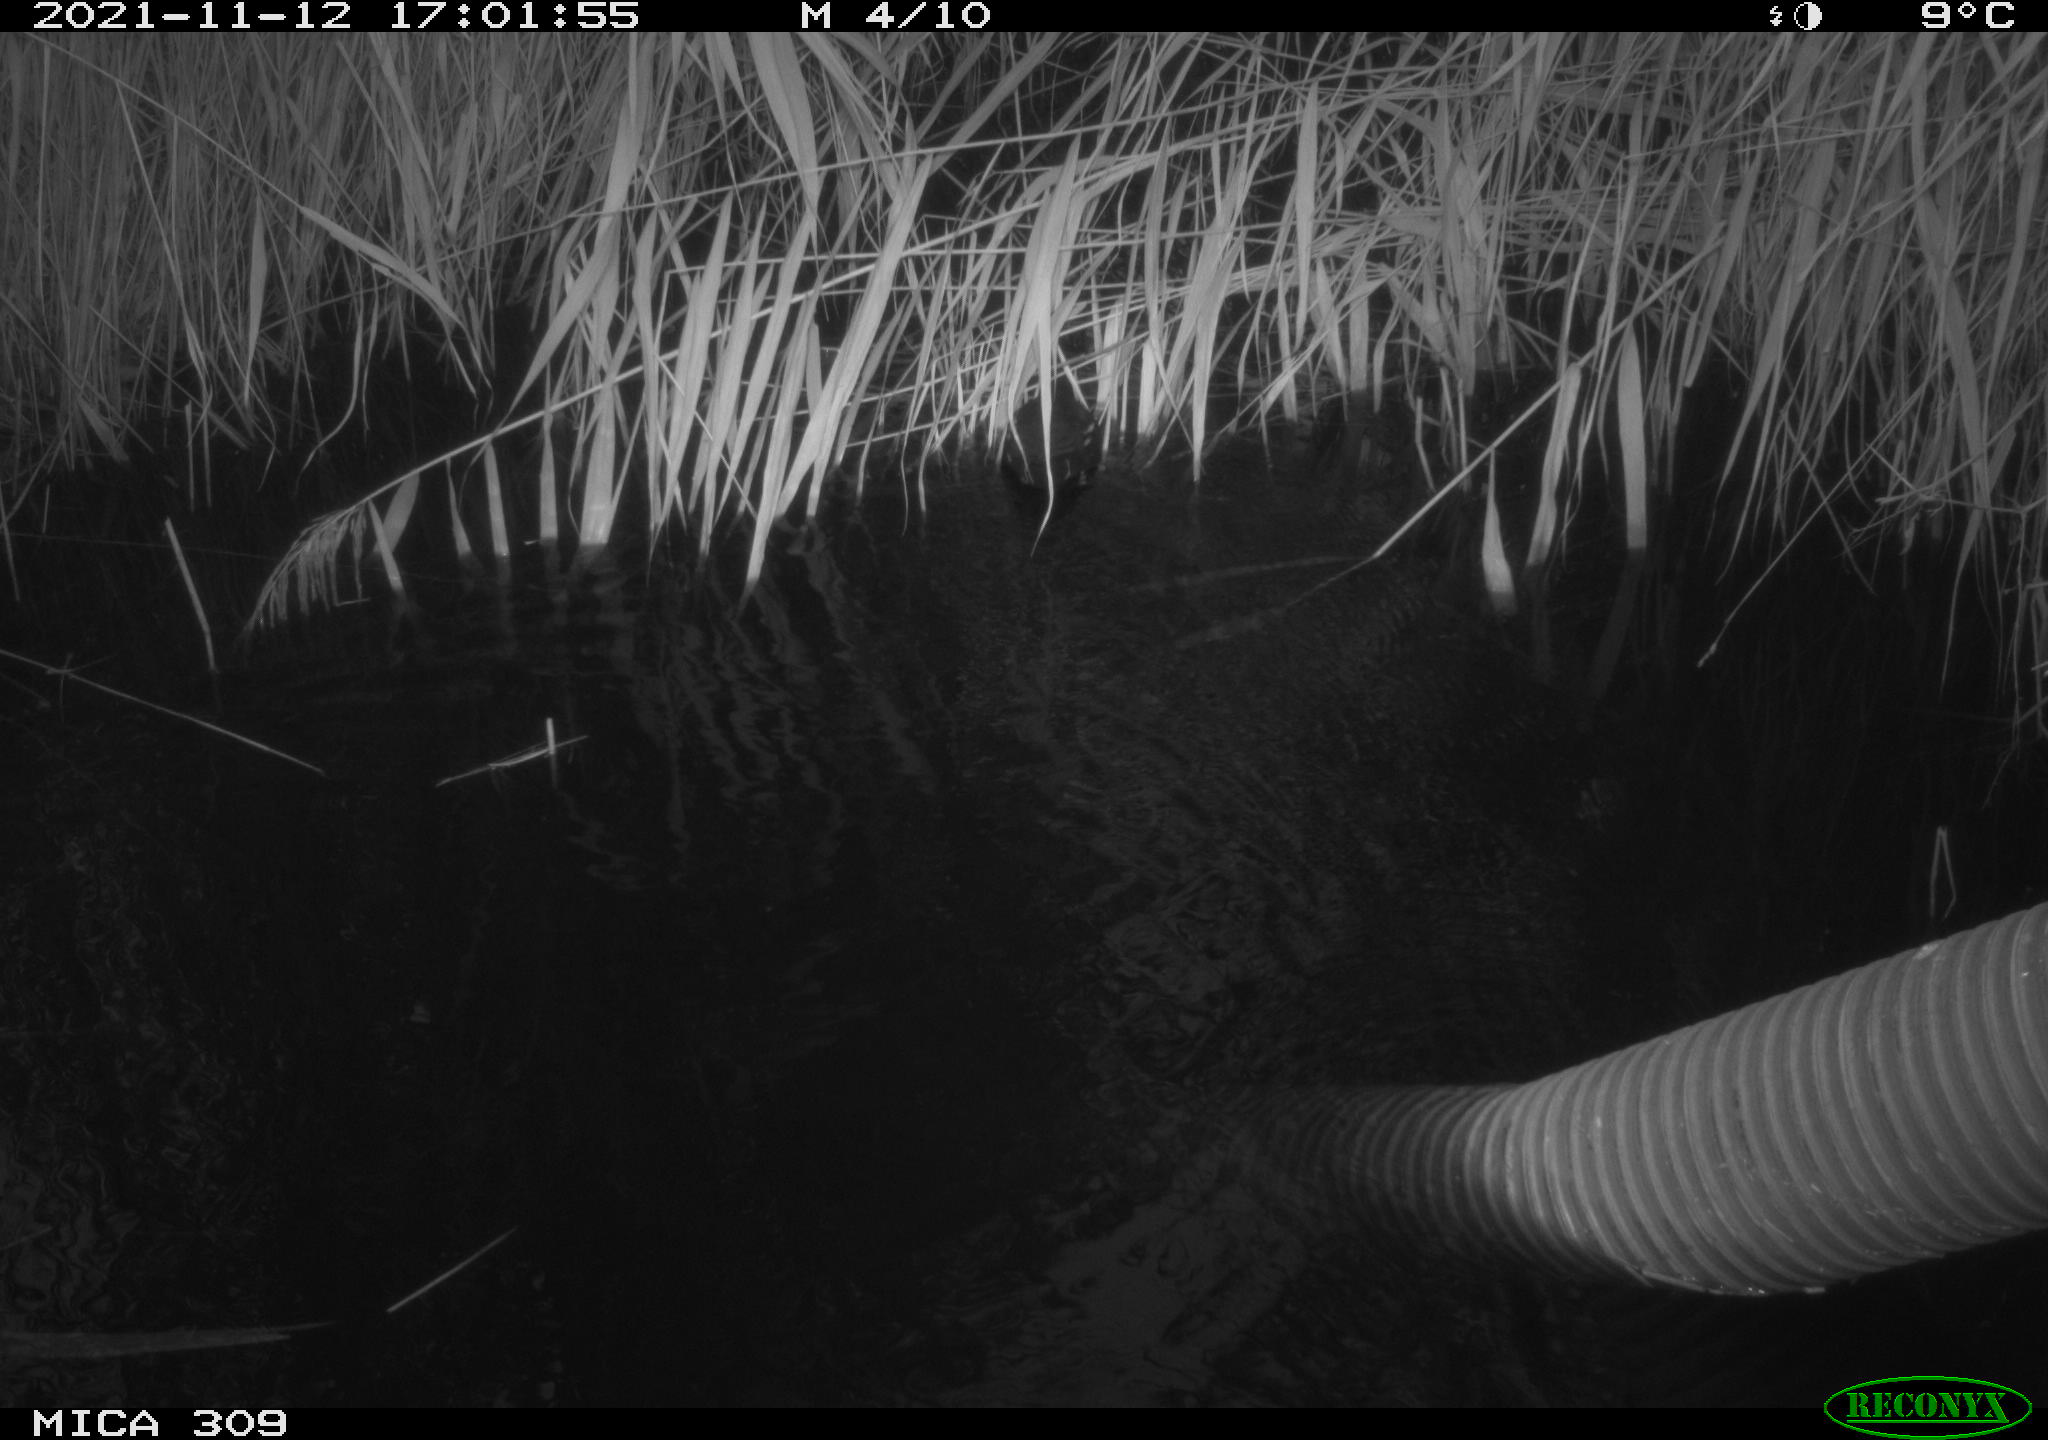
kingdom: Animalia
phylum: Chordata
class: Aves
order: Gruiformes
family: Rallidae
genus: Gallinula
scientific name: Gallinula chloropus
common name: Common moorhen
